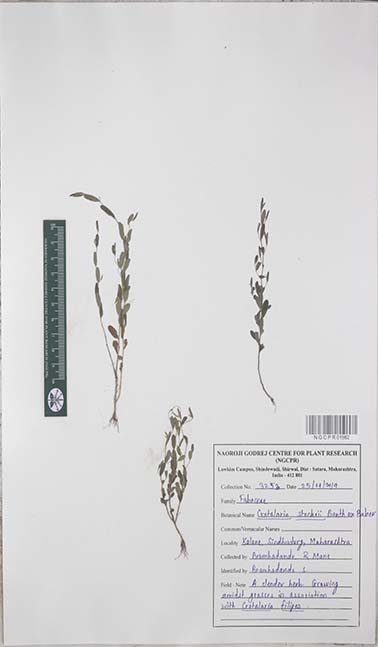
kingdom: Plantae
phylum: Tracheophyta
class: Magnoliopsida
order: Fabales
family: Fabaceae
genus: Crotalaria
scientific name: Crotalaria stocksii
